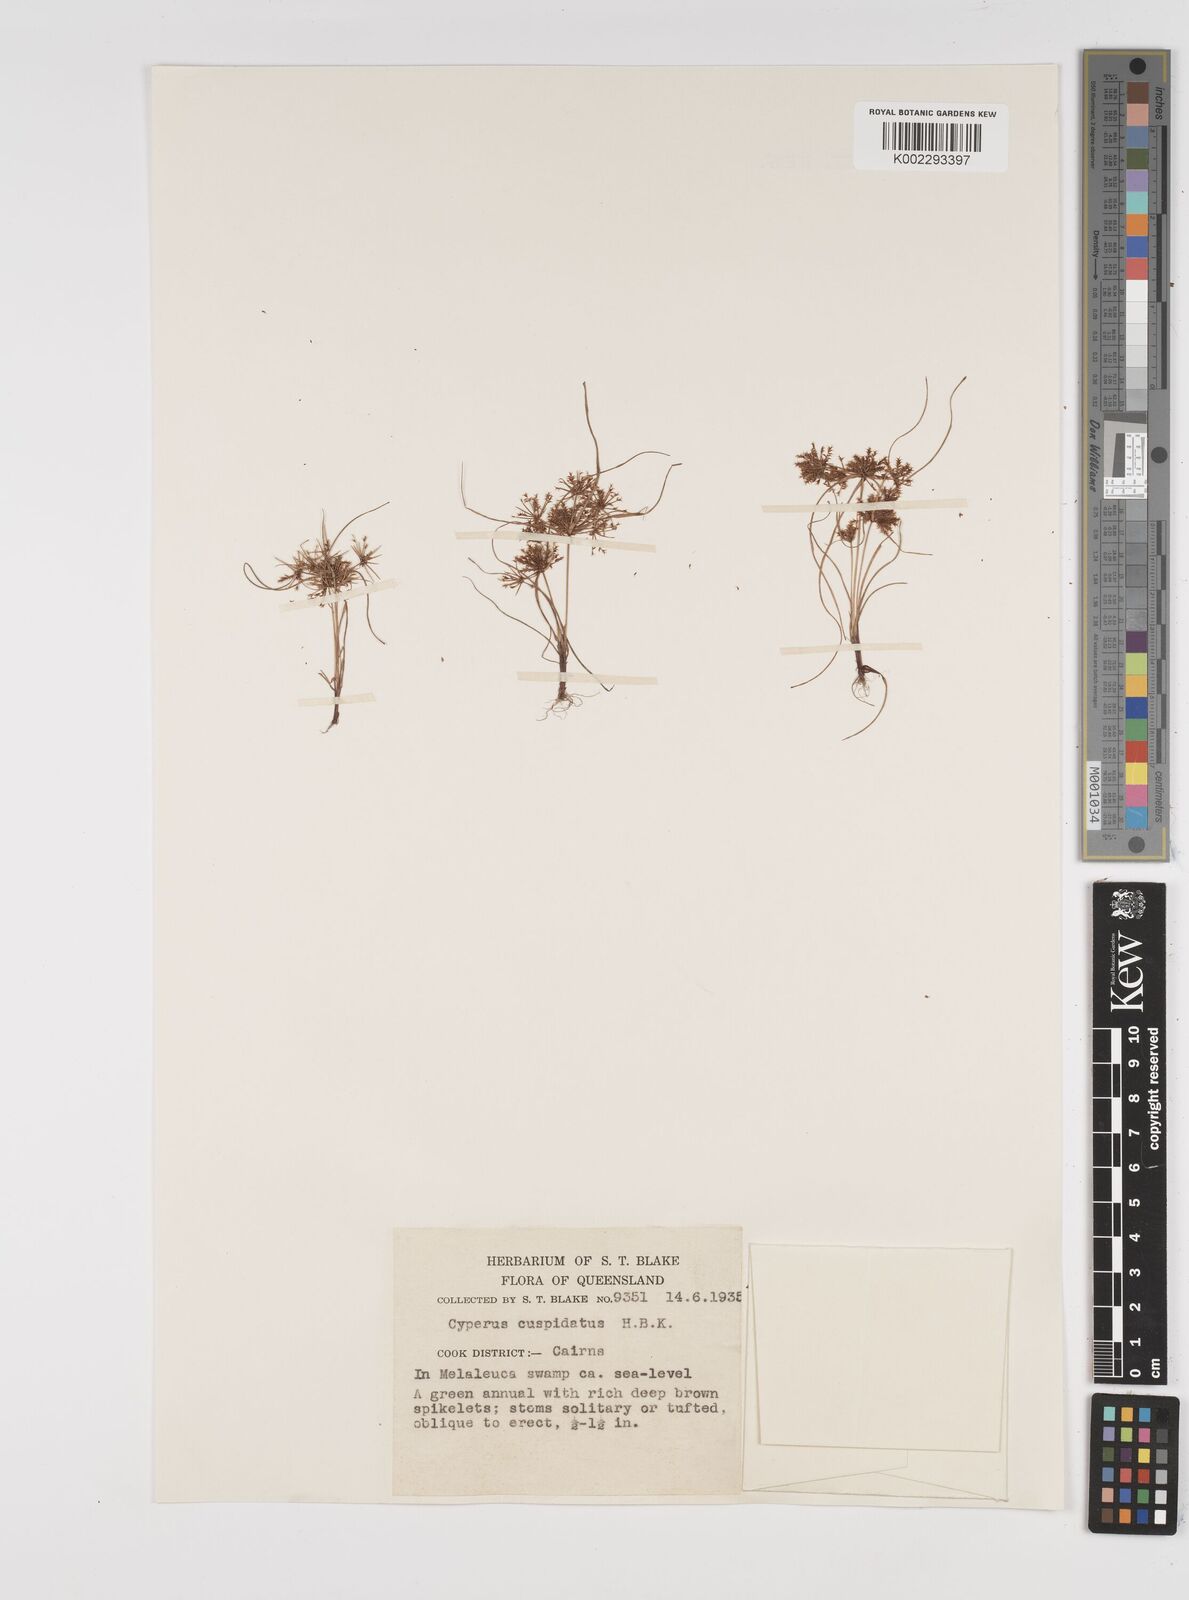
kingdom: Plantae
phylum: Tracheophyta
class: Liliopsida
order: Poales
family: Cyperaceae
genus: Cyperus
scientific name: Cyperus cuspidatus
